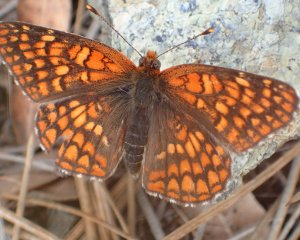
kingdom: Animalia
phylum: Arthropoda
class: Insecta
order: Lepidoptera
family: Nymphalidae
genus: Chlosyne
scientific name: Chlosyne palla
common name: Northern Checkerspot
